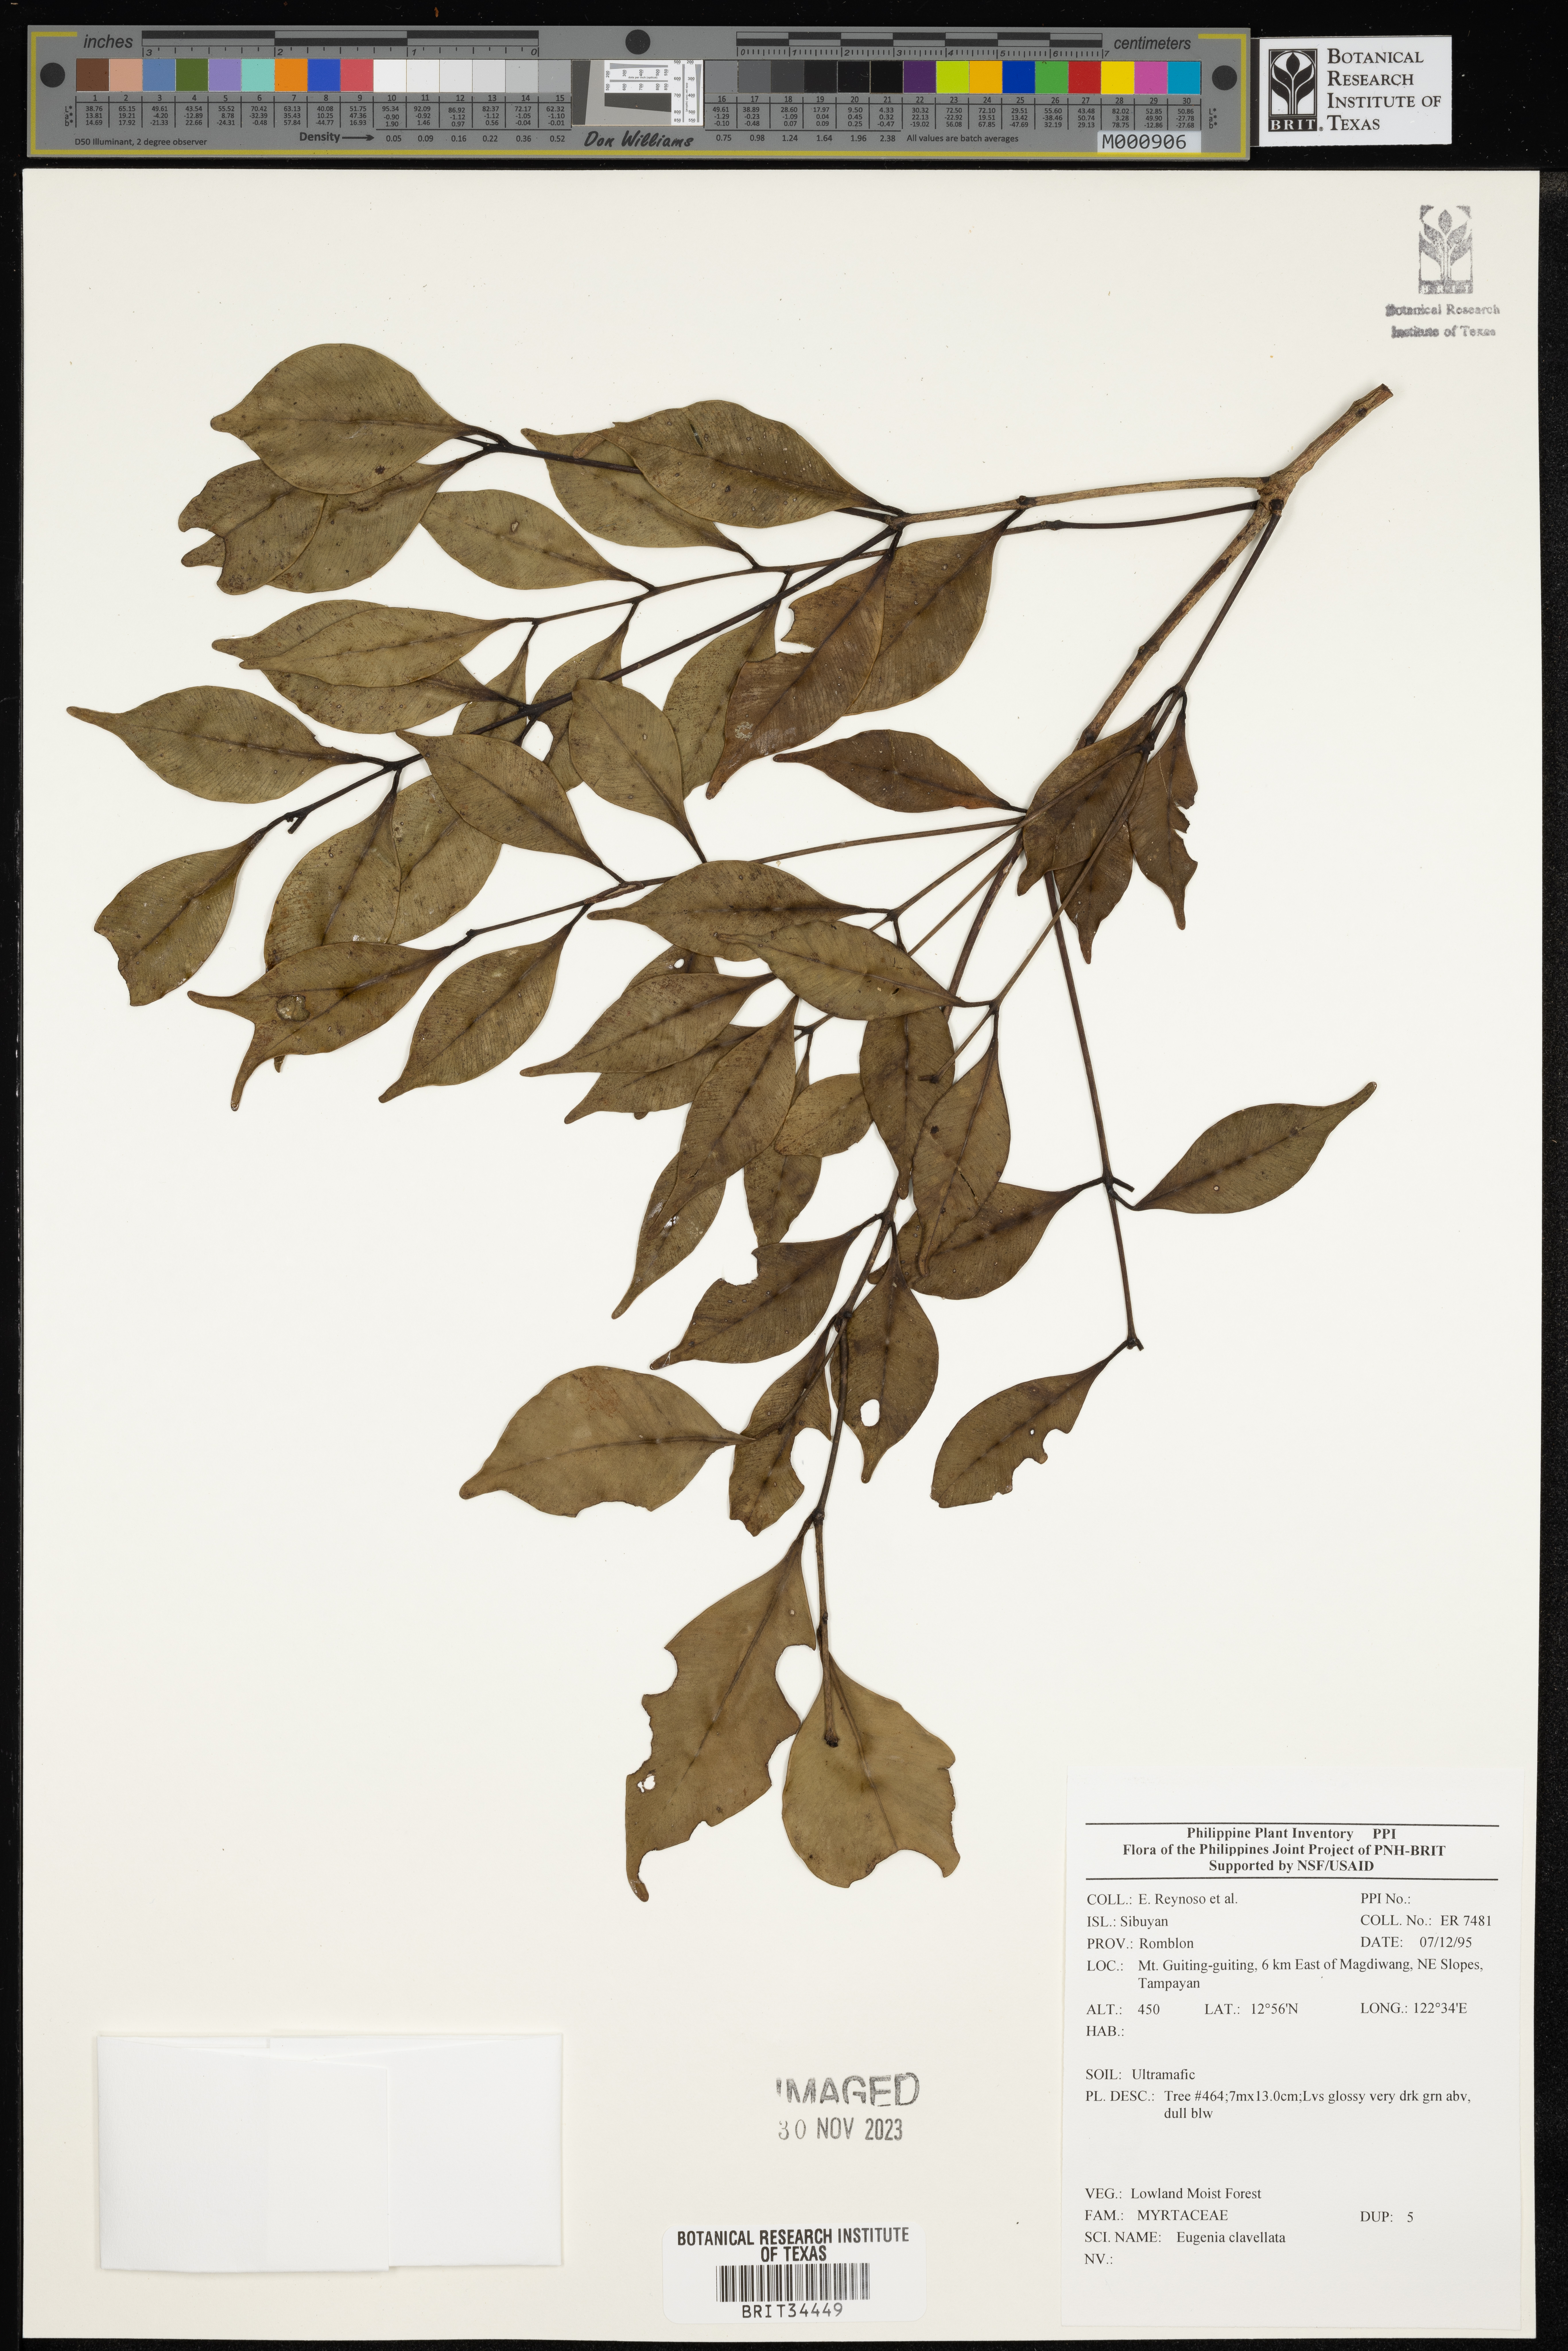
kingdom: Plantae
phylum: Tracheophyta
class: Magnoliopsida
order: Myrtales
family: Myrtaceae
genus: Eugenia
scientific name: Eugenia
